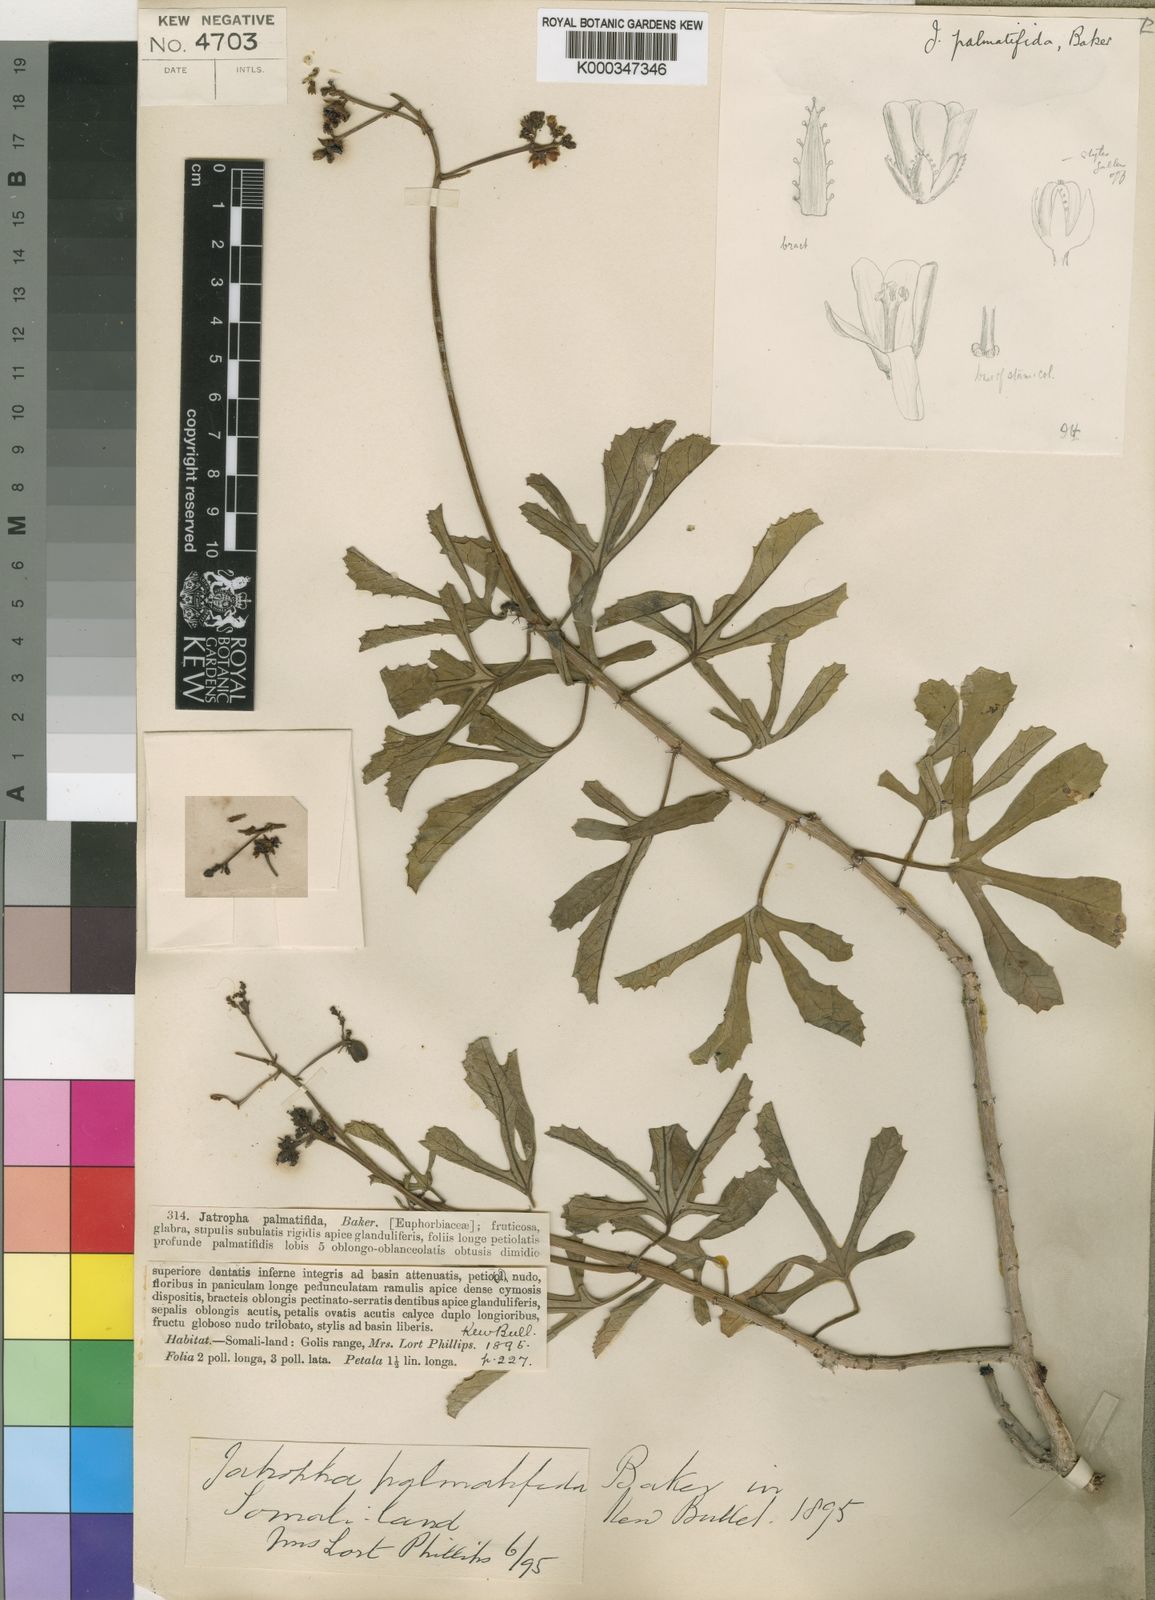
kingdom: Plantae
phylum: Tracheophyta
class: Magnoliopsida
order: Malpighiales
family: Euphorbiaceae
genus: Jatropha
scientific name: Jatropha palmatifida
